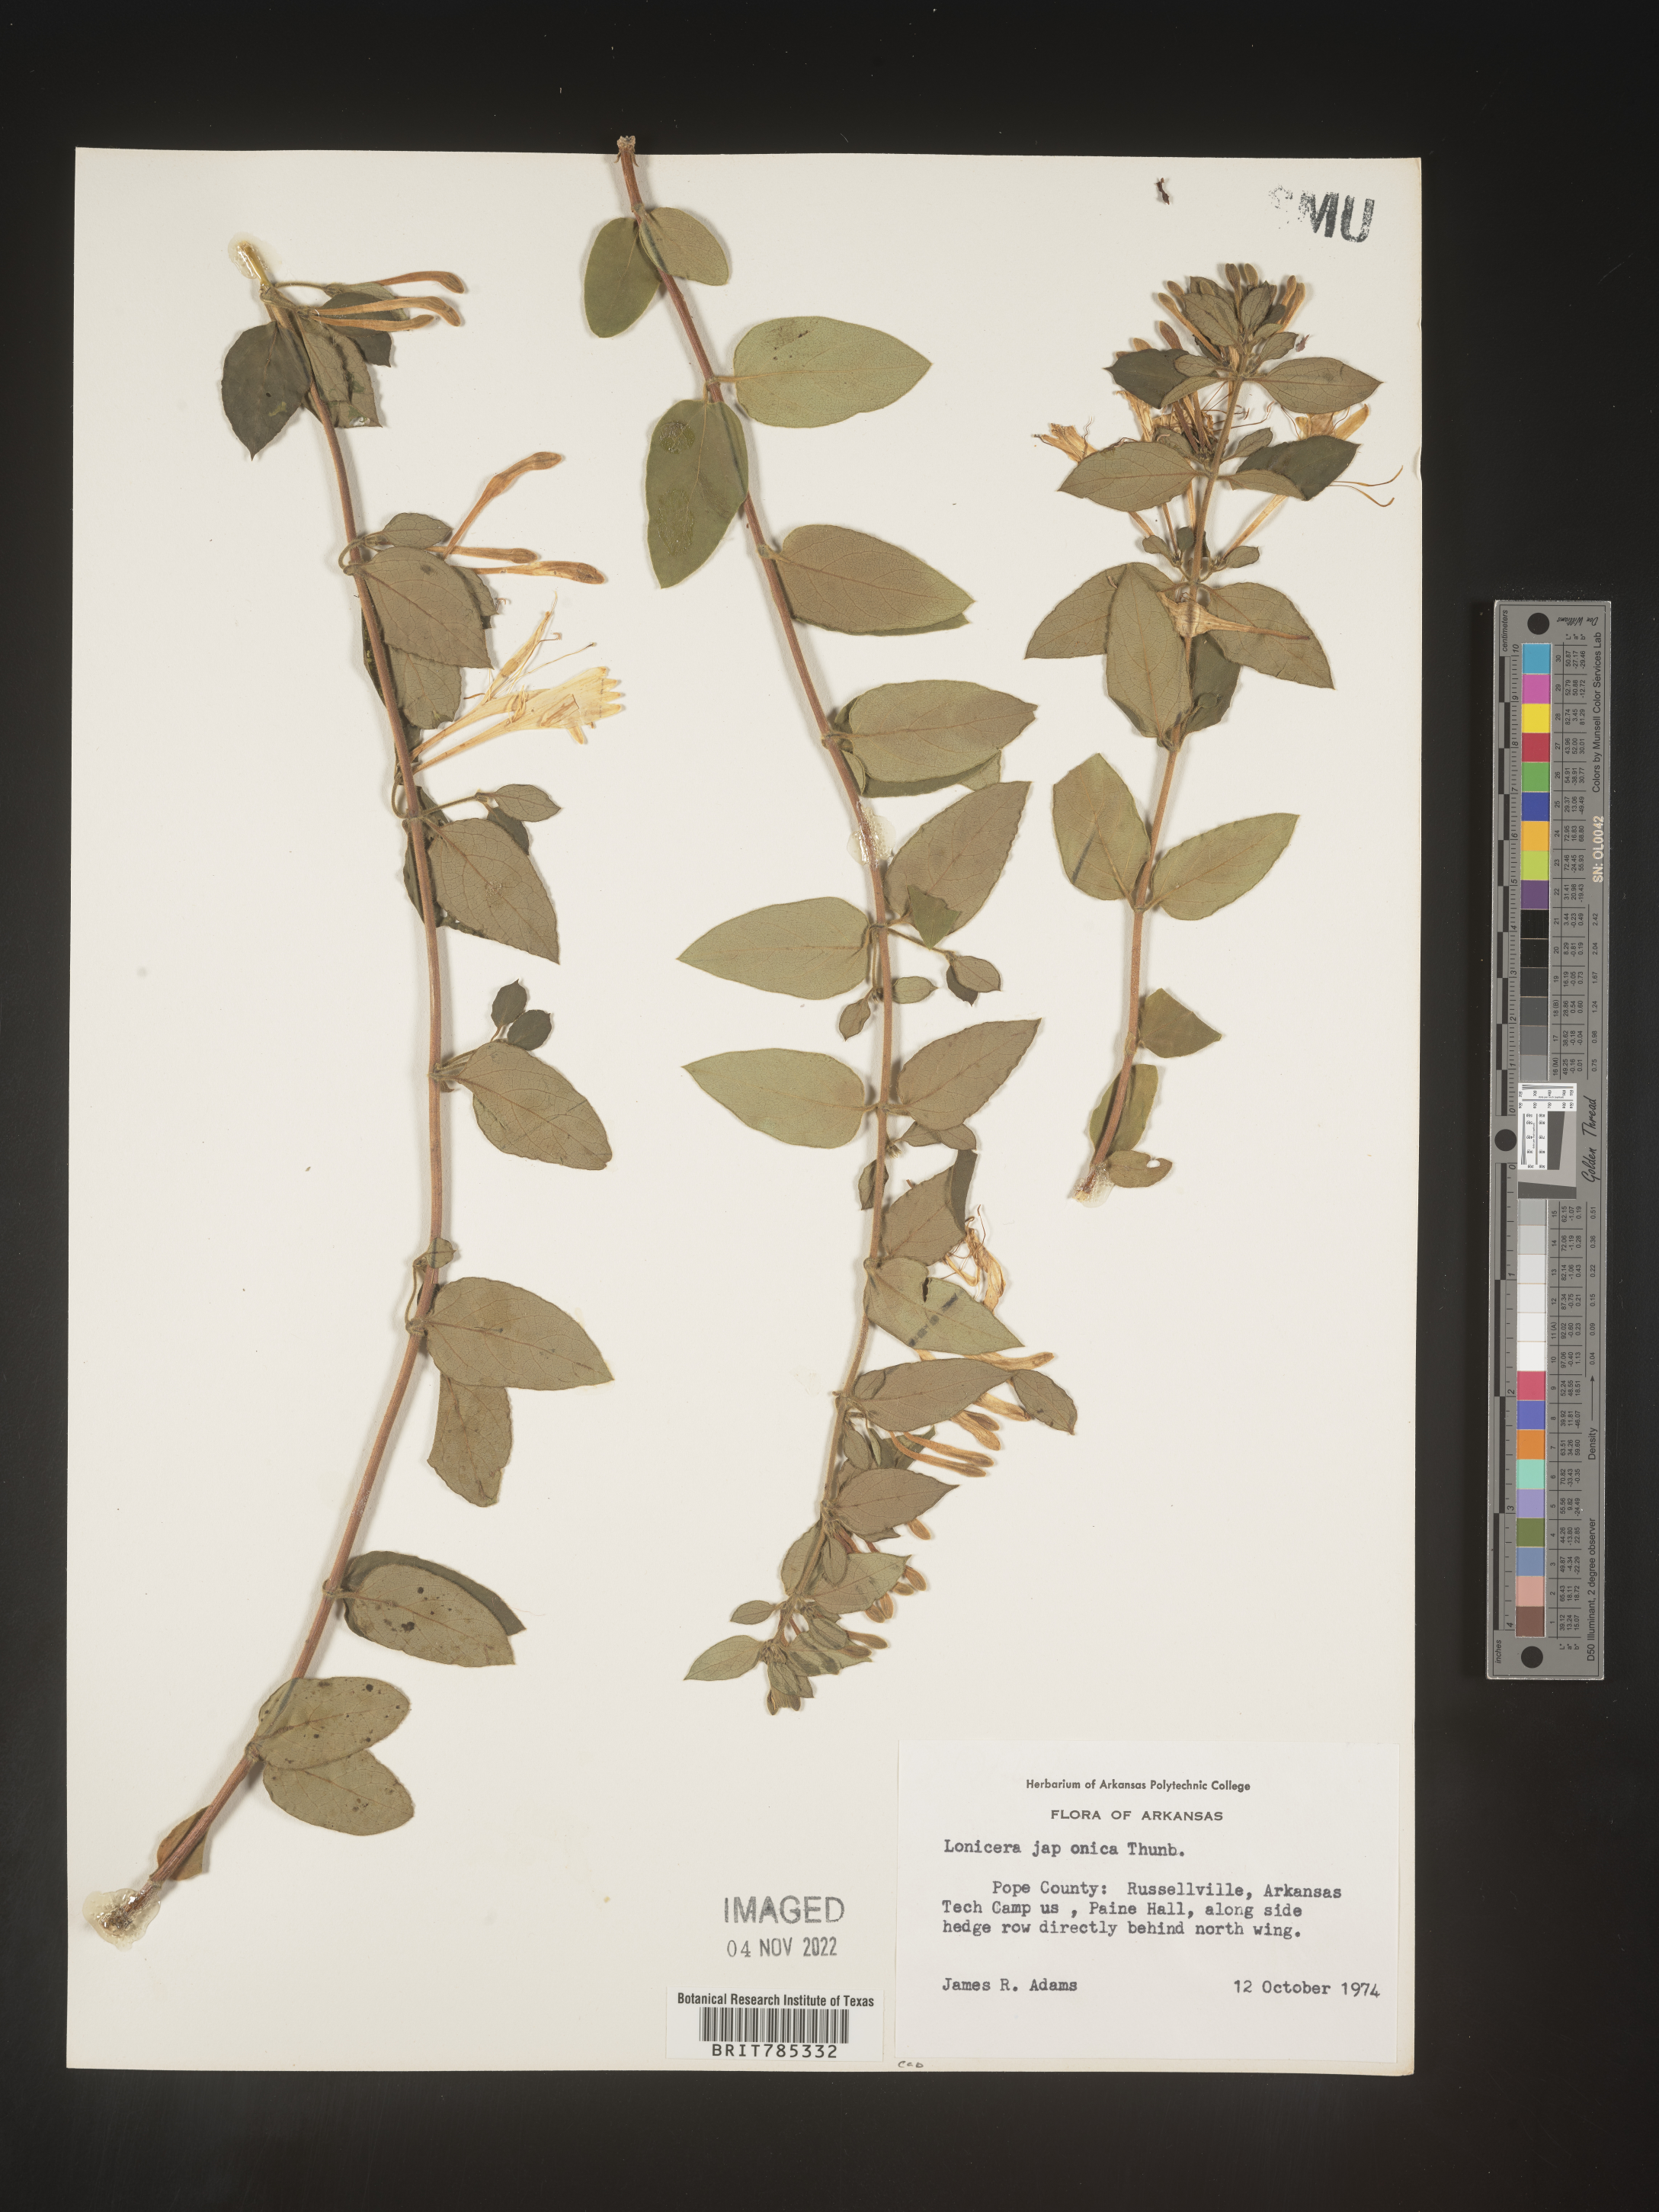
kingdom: Plantae
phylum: Tracheophyta
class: Magnoliopsida
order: Dipsacales
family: Caprifoliaceae
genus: Lonicera
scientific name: Lonicera japonica
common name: Japanese honeysuckle
